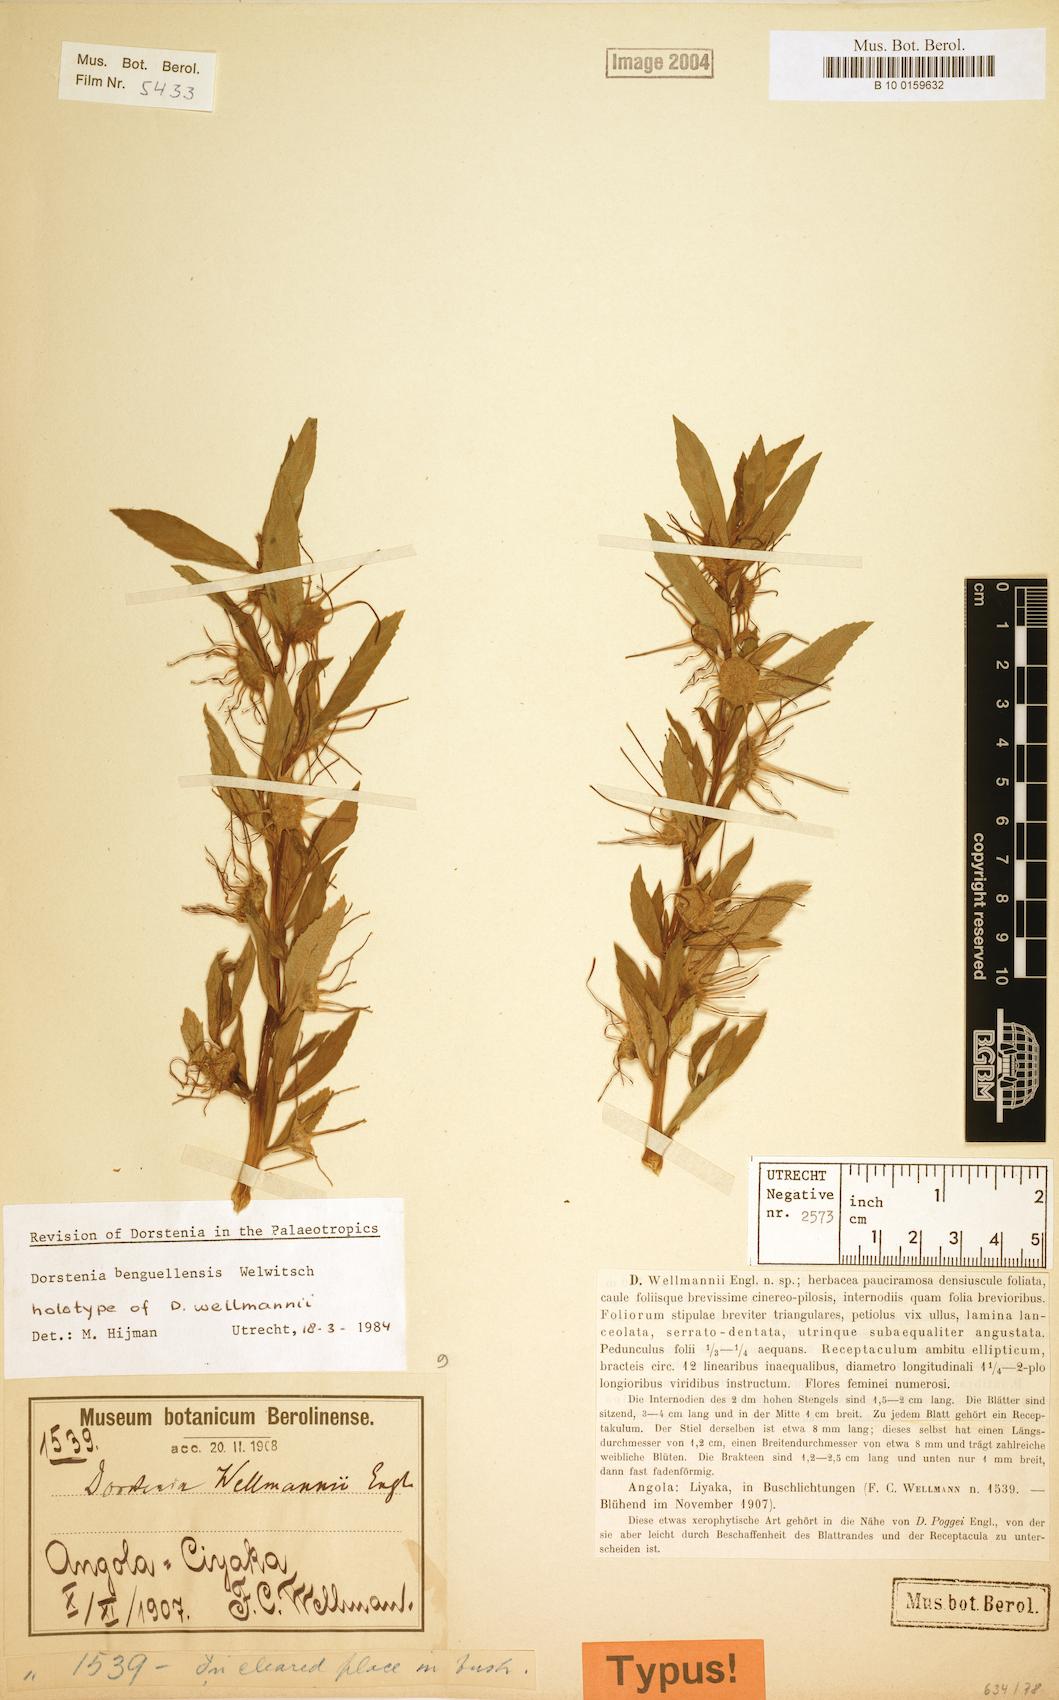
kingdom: Plantae
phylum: Tracheophyta
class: Magnoliopsida
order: Rosales
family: Moraceae
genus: Dorstenia
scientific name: Dorstenia benguellensis
